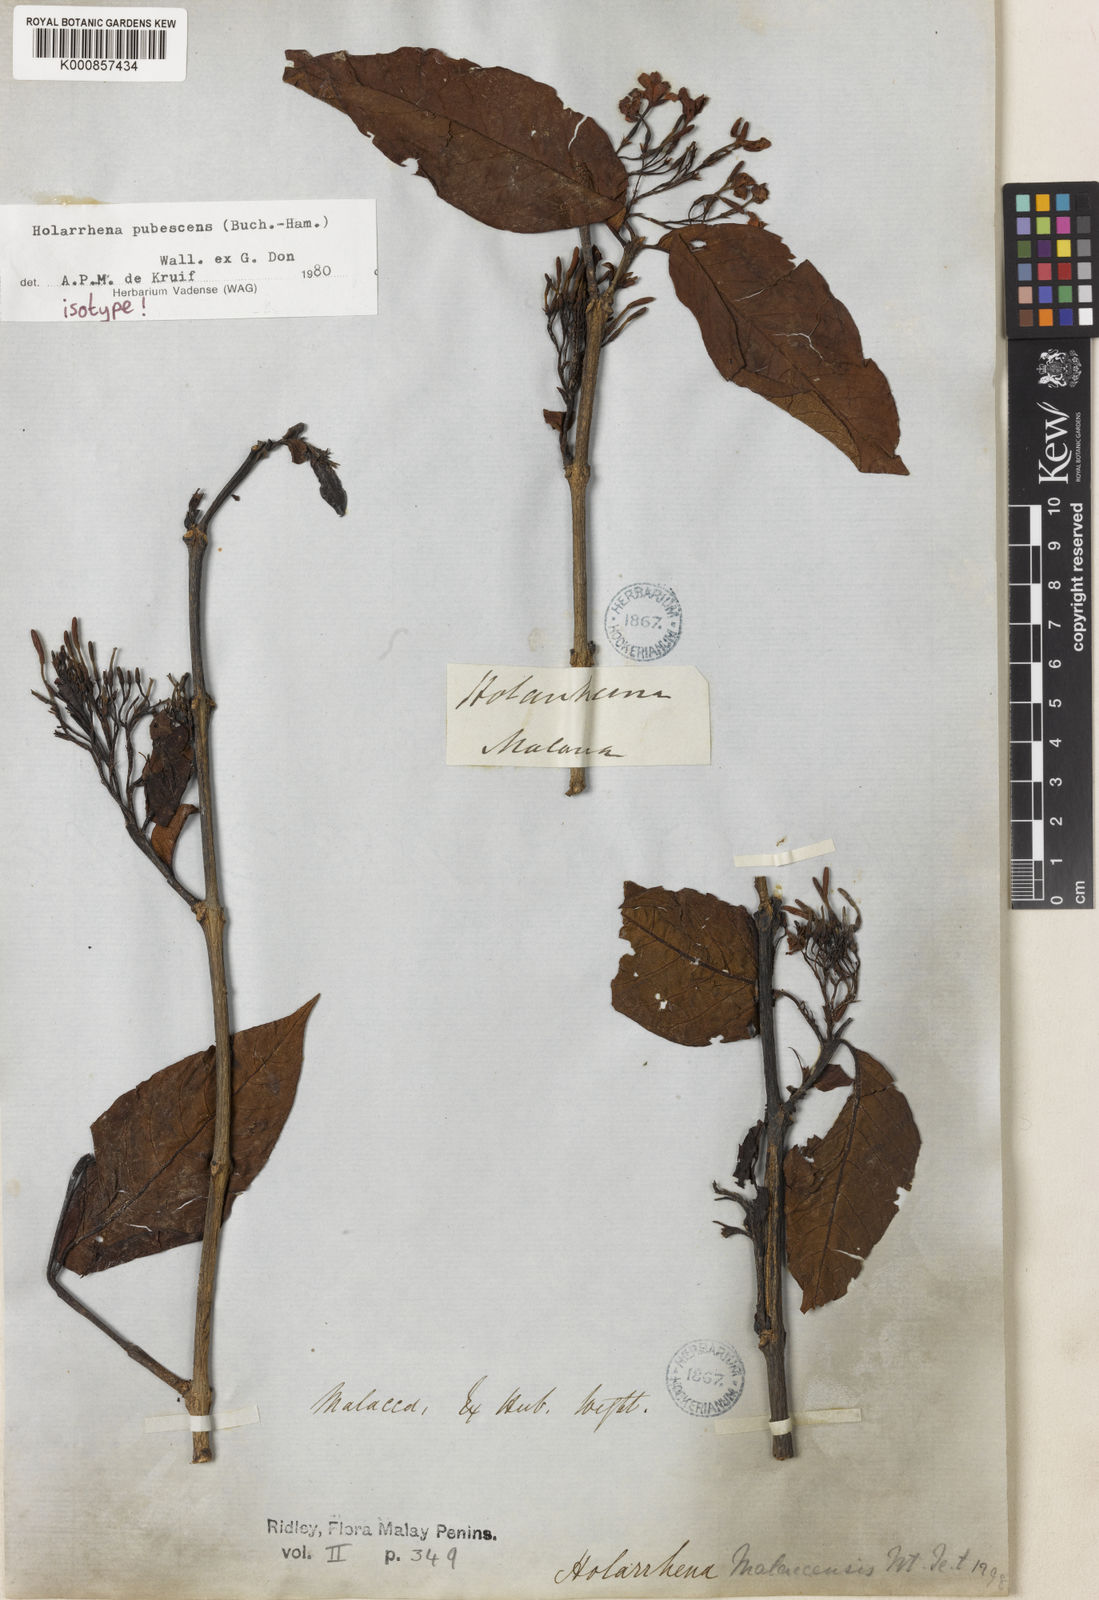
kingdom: Plantae
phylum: Tracheophyta
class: Magnoliopsida
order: Gentianales
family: Apocynaceae
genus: Holarrhena
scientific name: Holarrhena pubescens
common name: Bitter oleander
